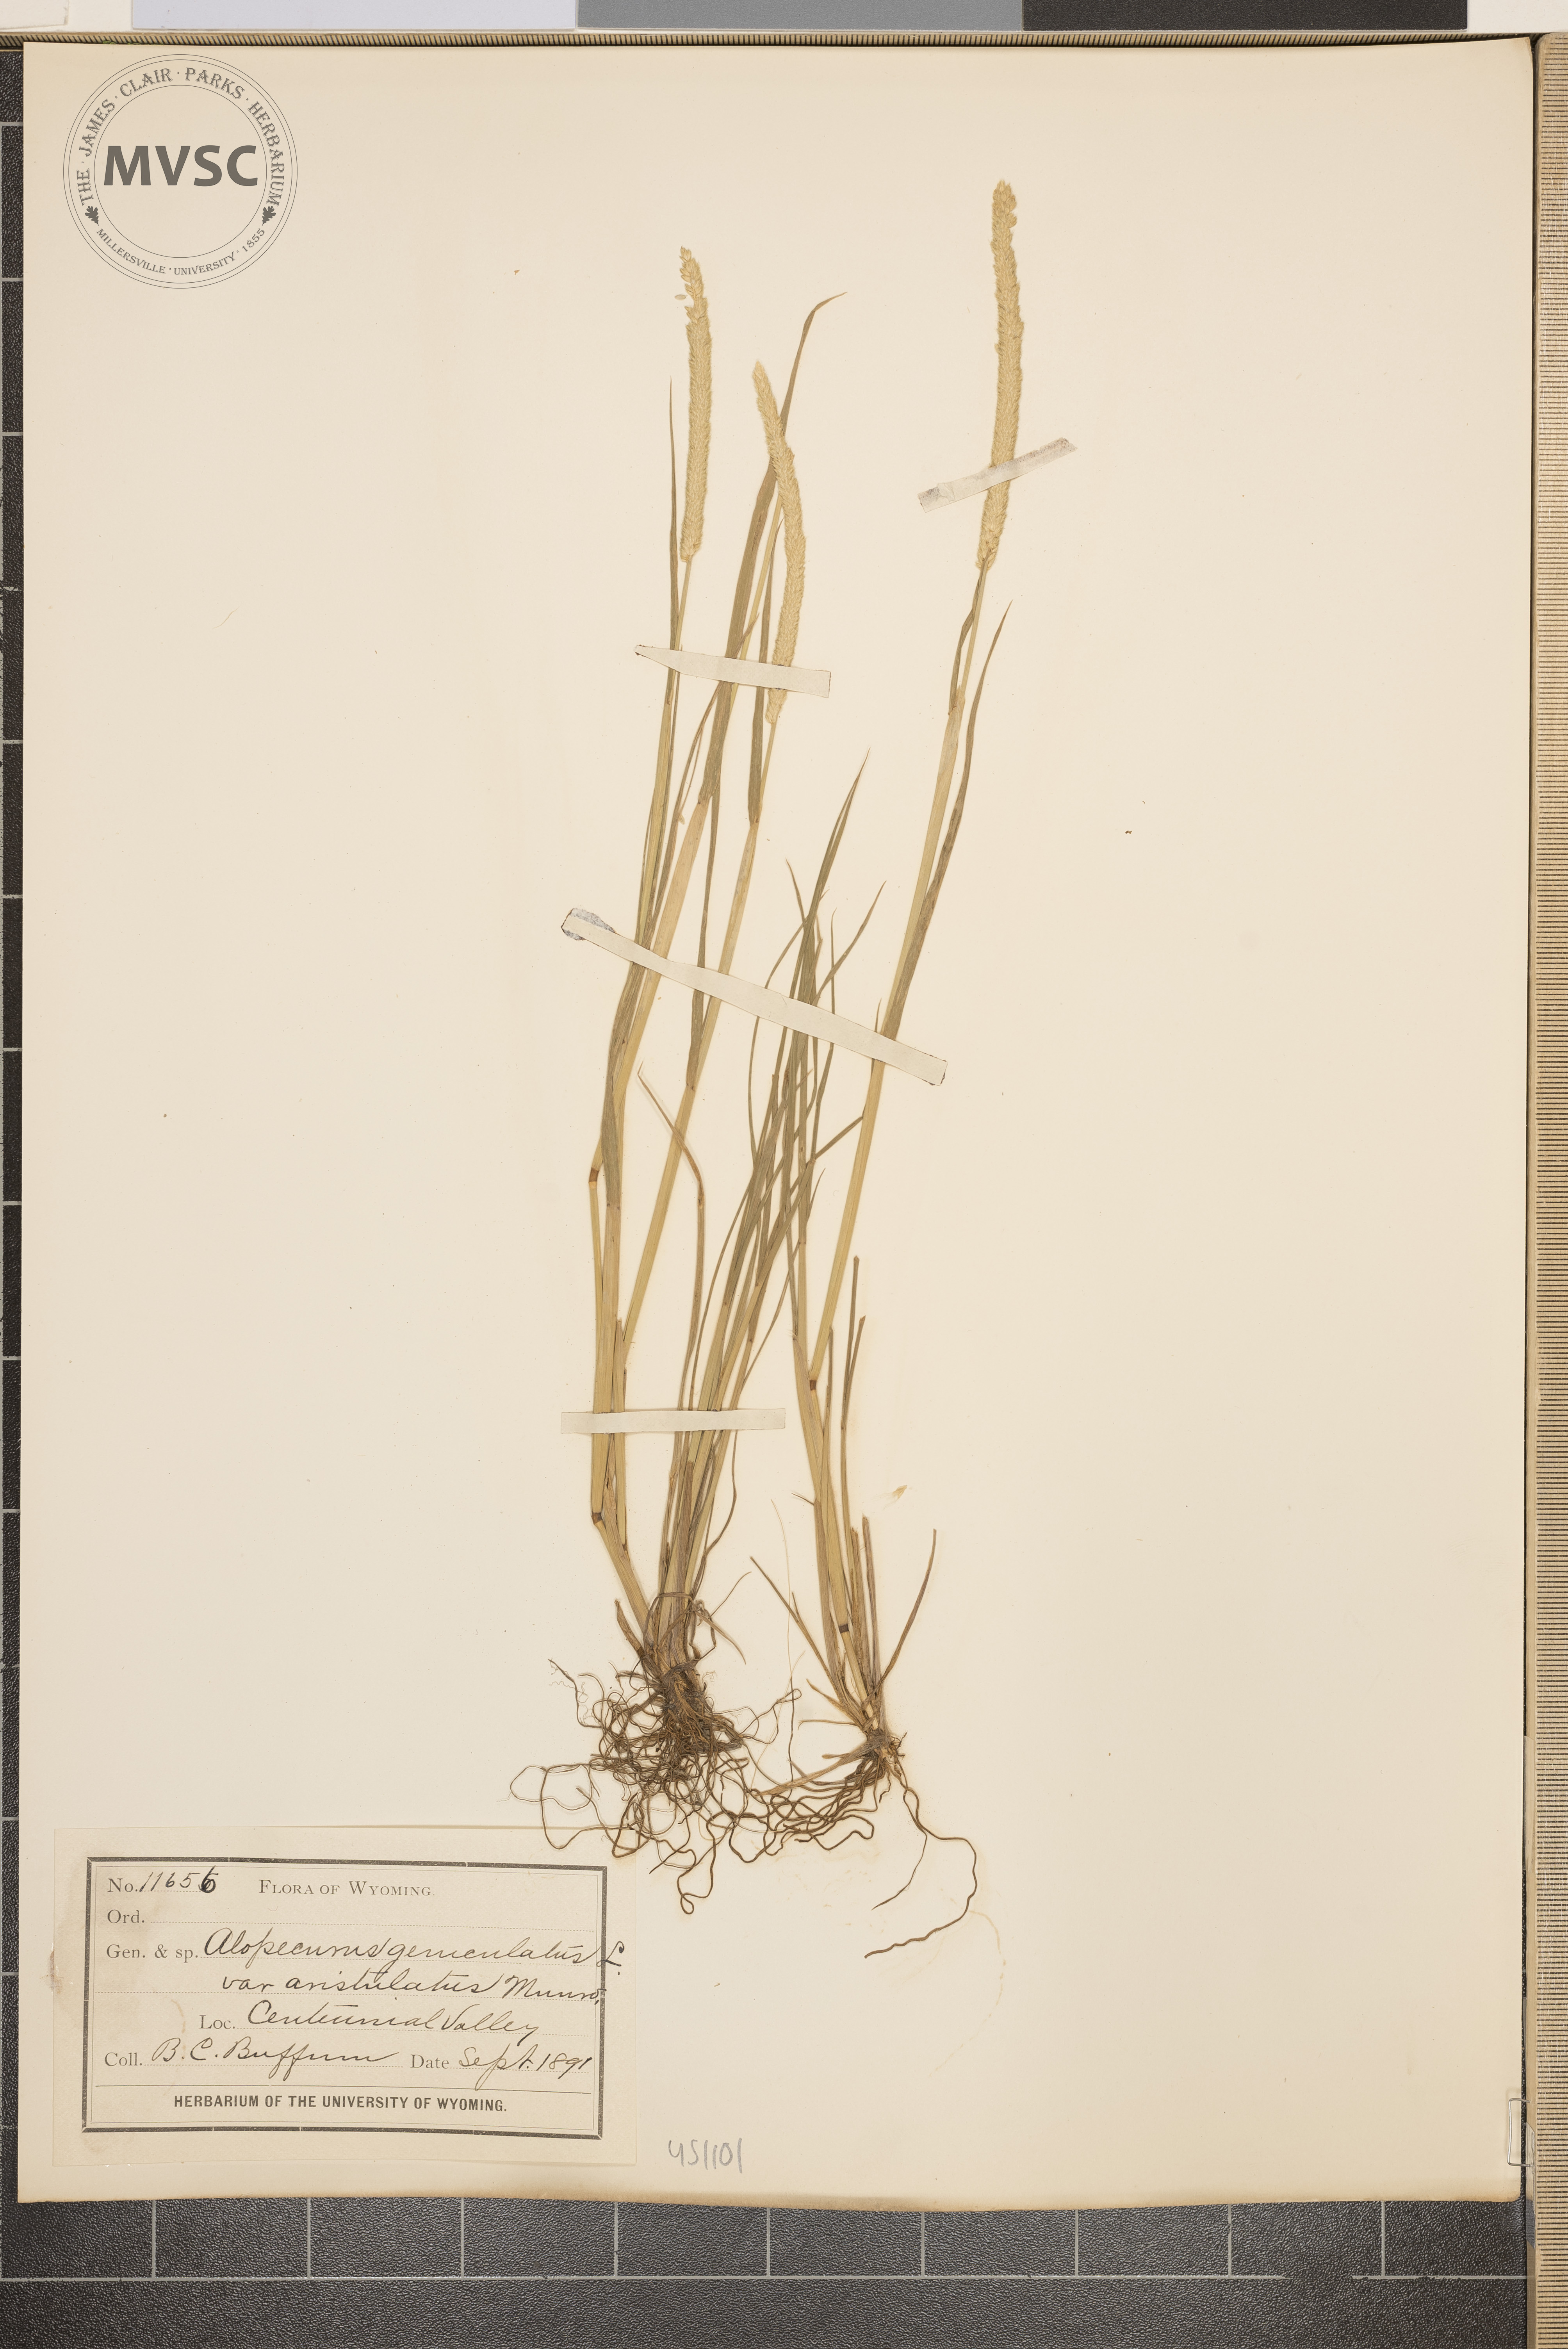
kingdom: Plantae
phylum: Tracheophyta
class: Liliopsida
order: Poales
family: Poaceae
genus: Alopecurus
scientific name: Alopecurus geniculatus
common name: Water foxtail
